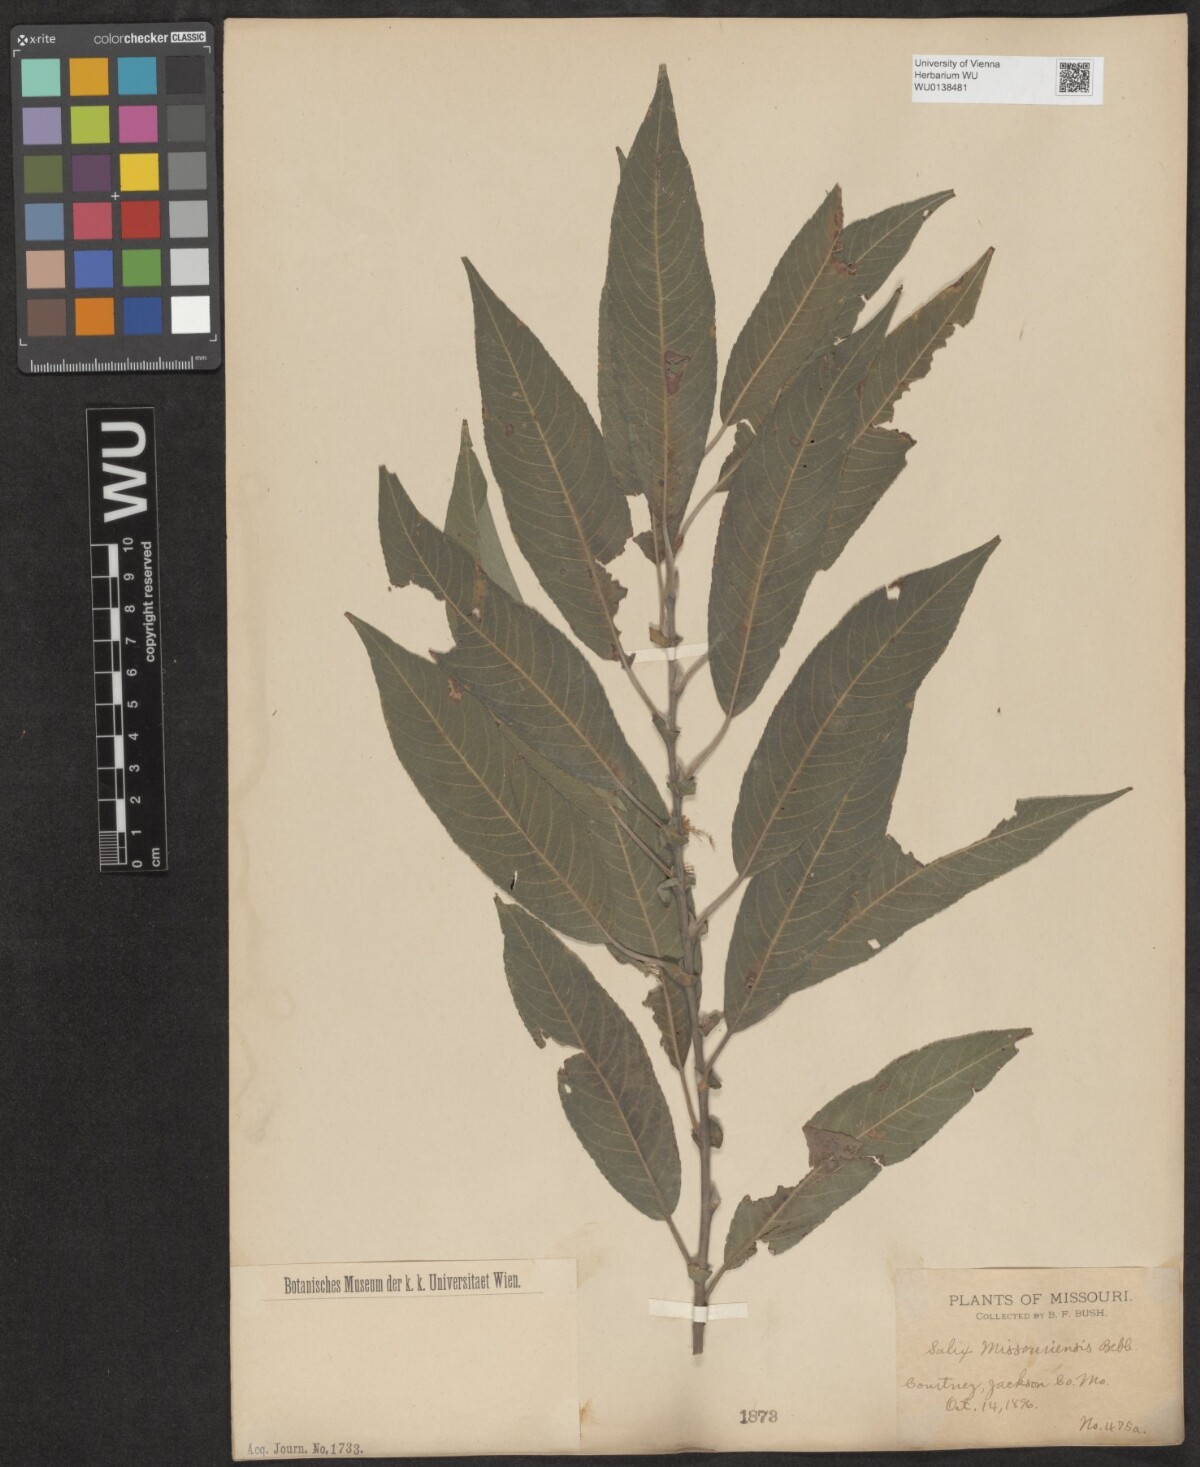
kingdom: Plantae
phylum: Tracheophyta
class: Magnoliopsida
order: Malpighiales
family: Salicaceae
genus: Salix
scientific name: Salix eriocephala
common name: Heart-leaved willow
